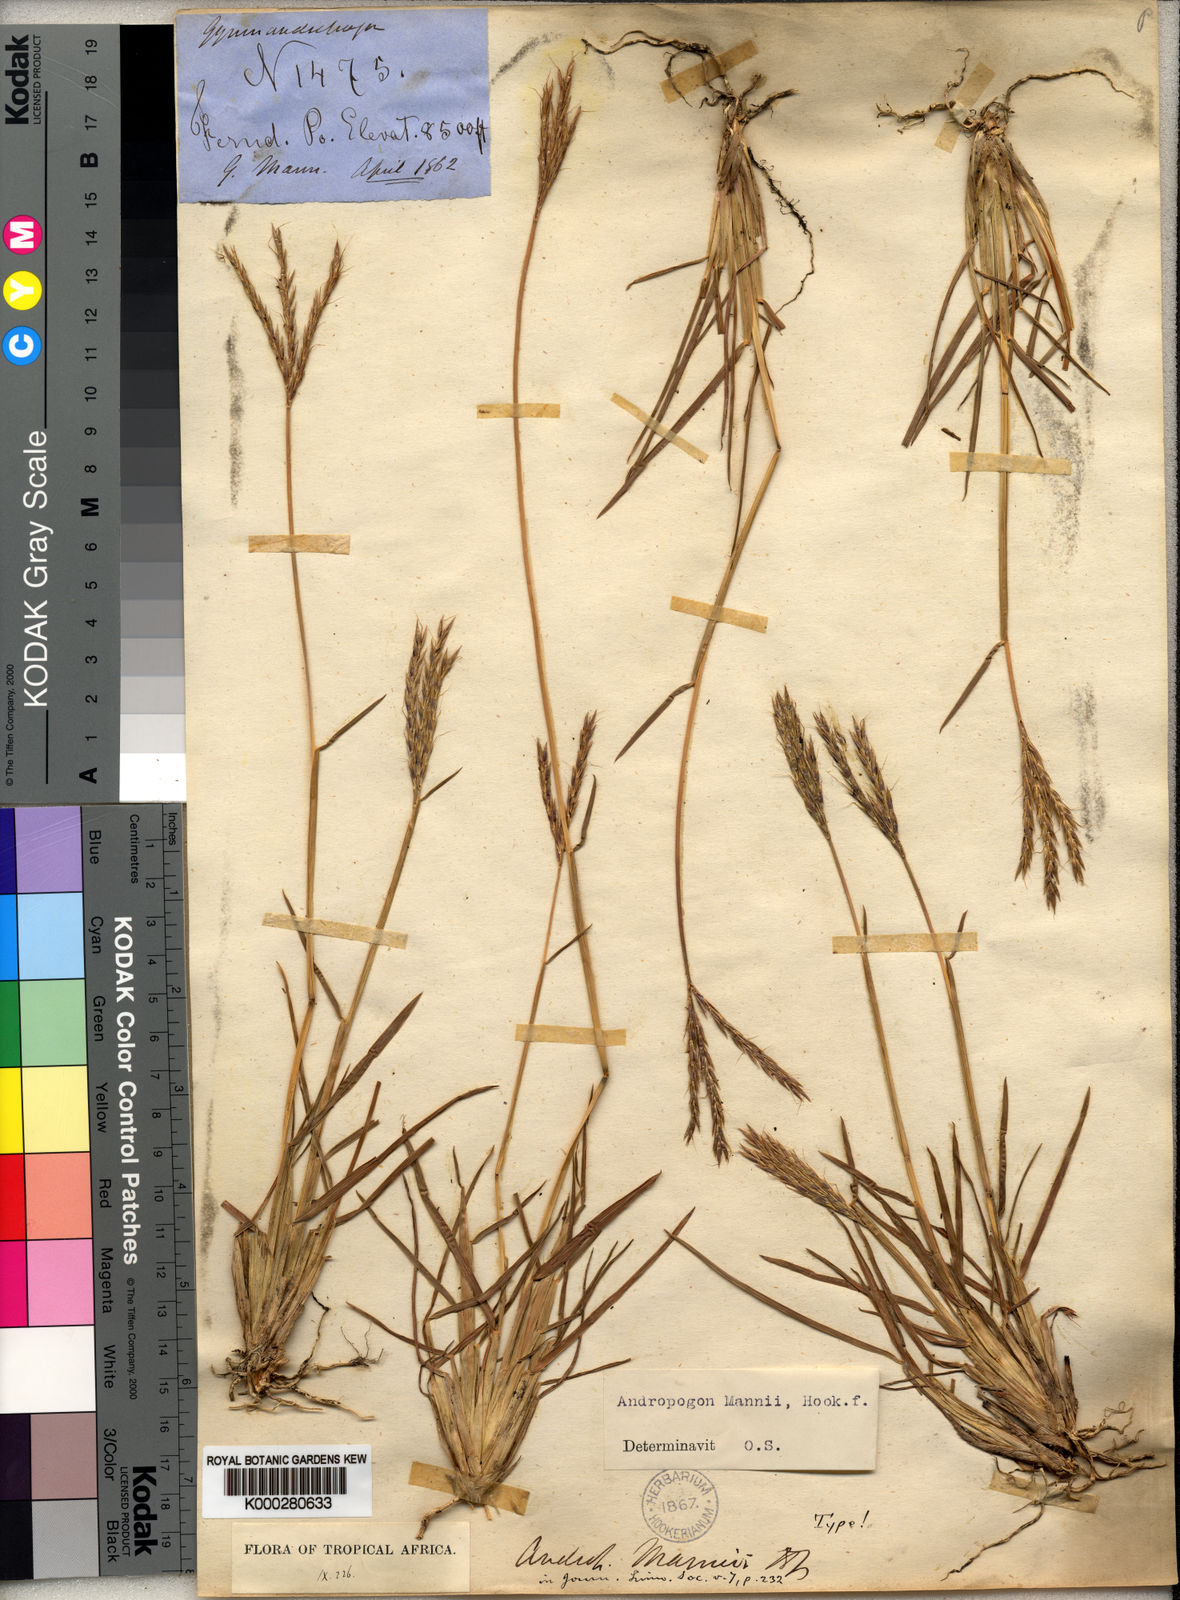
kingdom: Plantae
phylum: Tracheophyta
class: Liliopsida
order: Poales
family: Poaceae
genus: Andropogon
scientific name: Andropogon mannii
